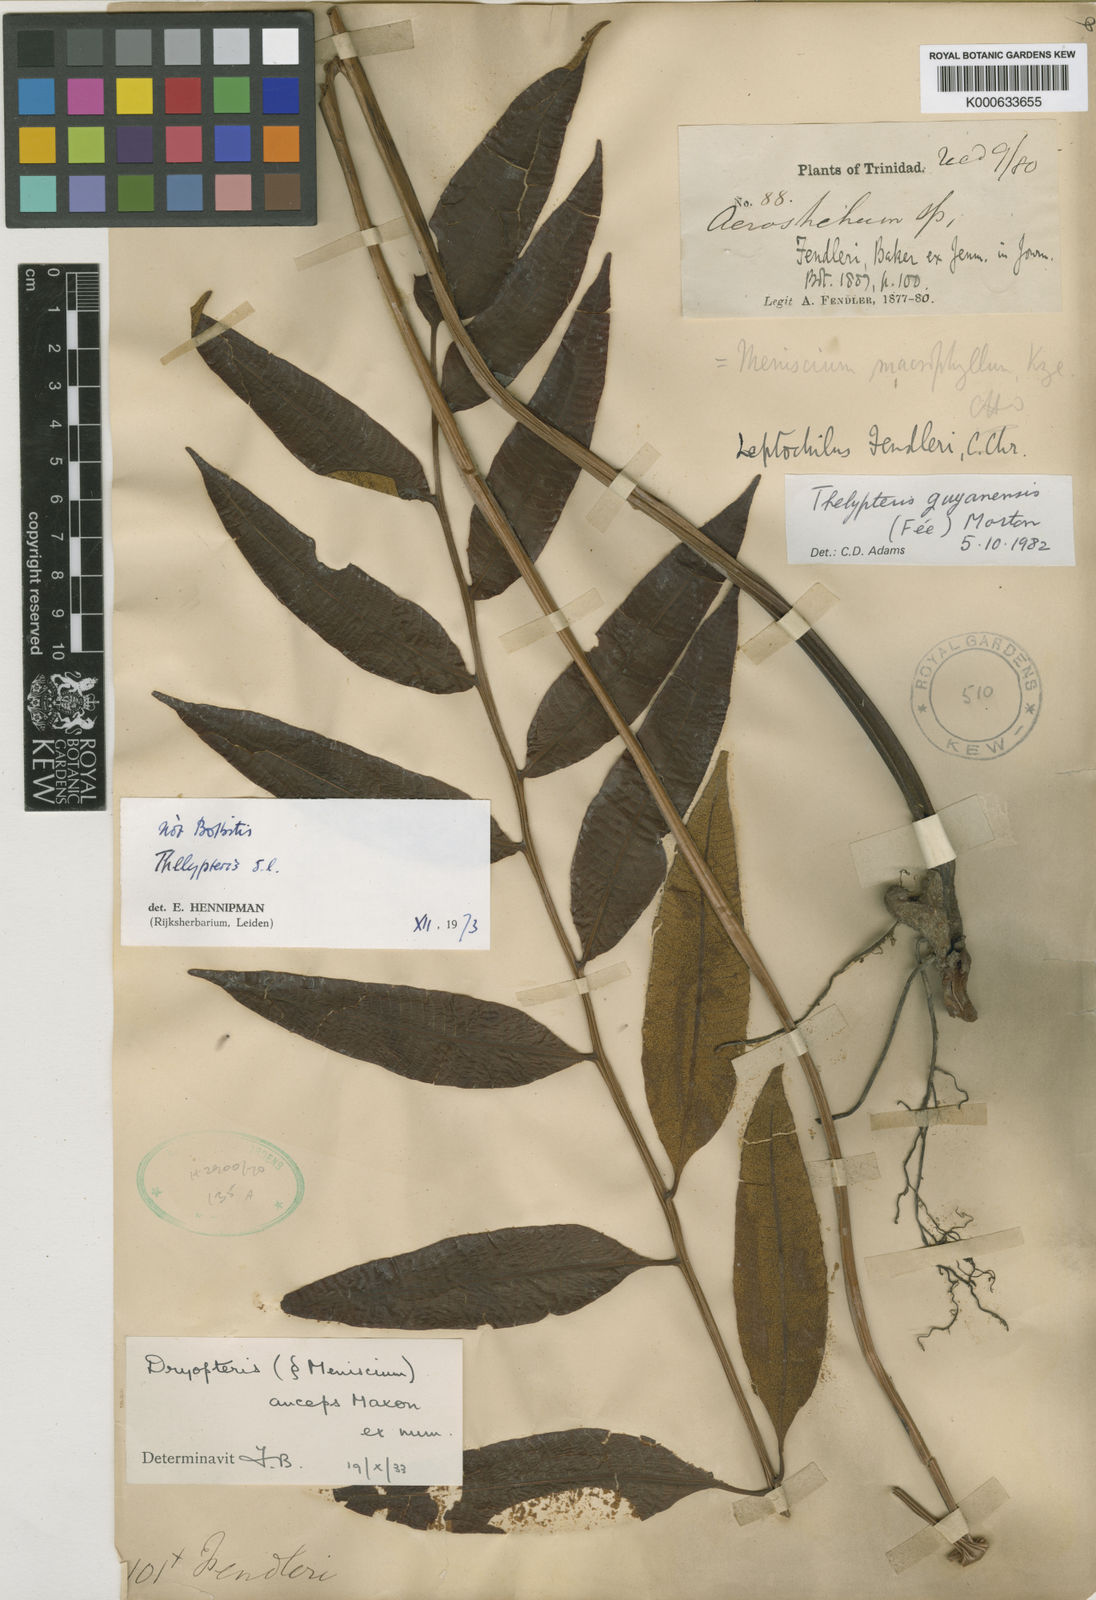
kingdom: Plantae
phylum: Tracheophyta
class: Polypodiopsida
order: Polypodiales
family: Thelypteridaceae
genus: Meniscium
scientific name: Meniscium
